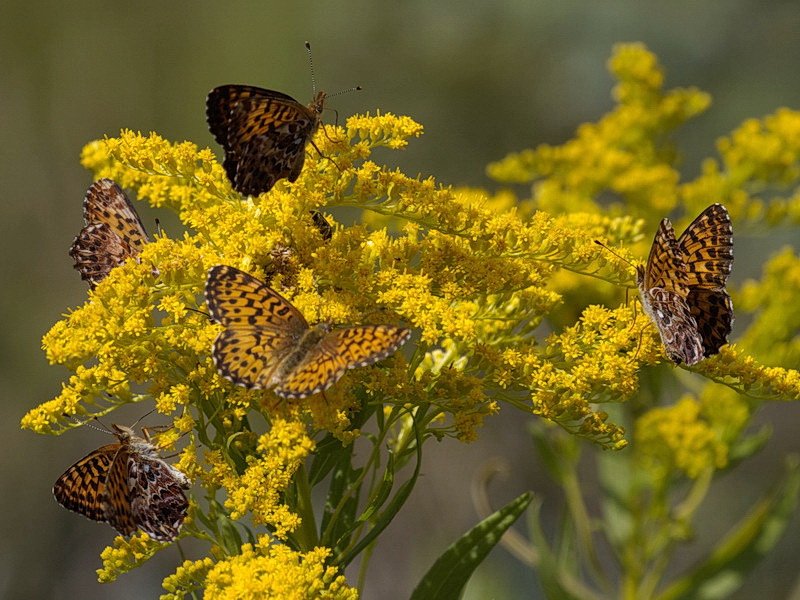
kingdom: Animalia
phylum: Arthropoda
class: Insecta
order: Lepidoptera
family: Nymphalidae
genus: Boloria
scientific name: Boloria chariclea
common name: Arctic Fritillary
